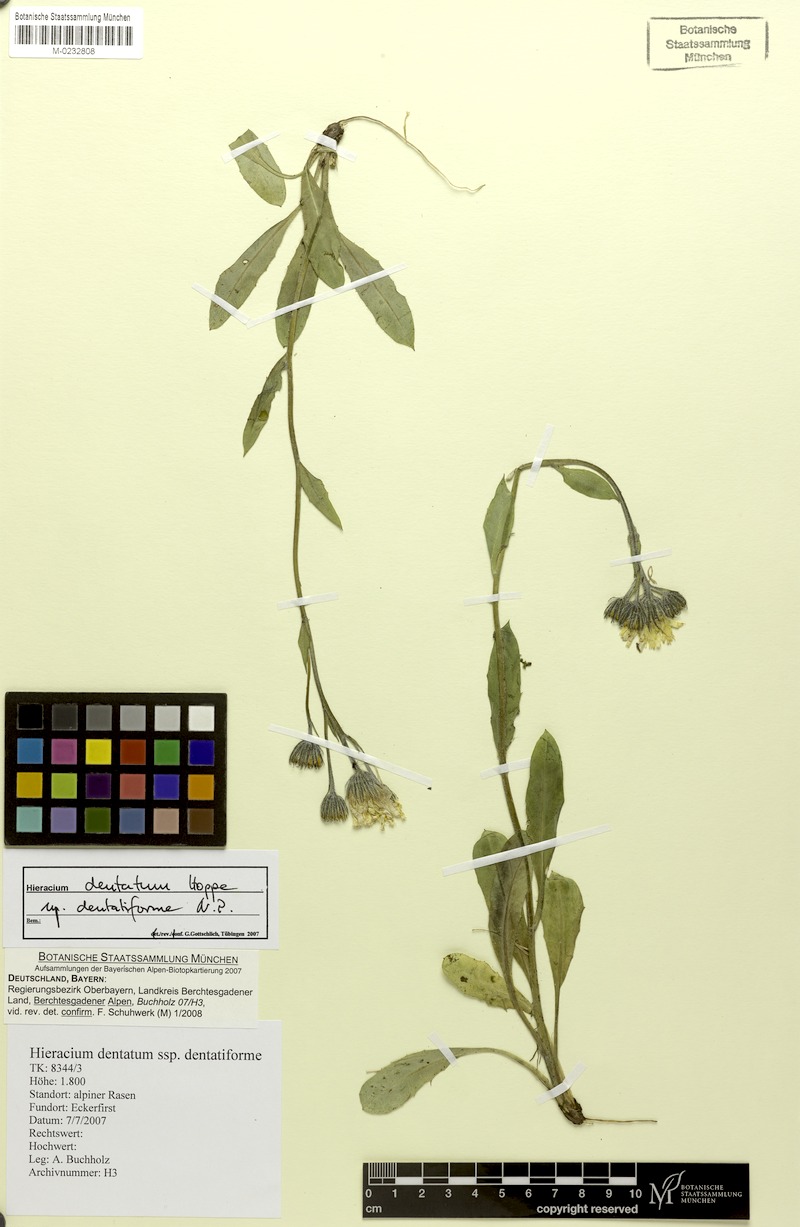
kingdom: Plantae
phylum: Tracheophyta
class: Magnoliopsida
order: Asterales
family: Asteraceae
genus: Hieracium
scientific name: Hieracium dentatum
